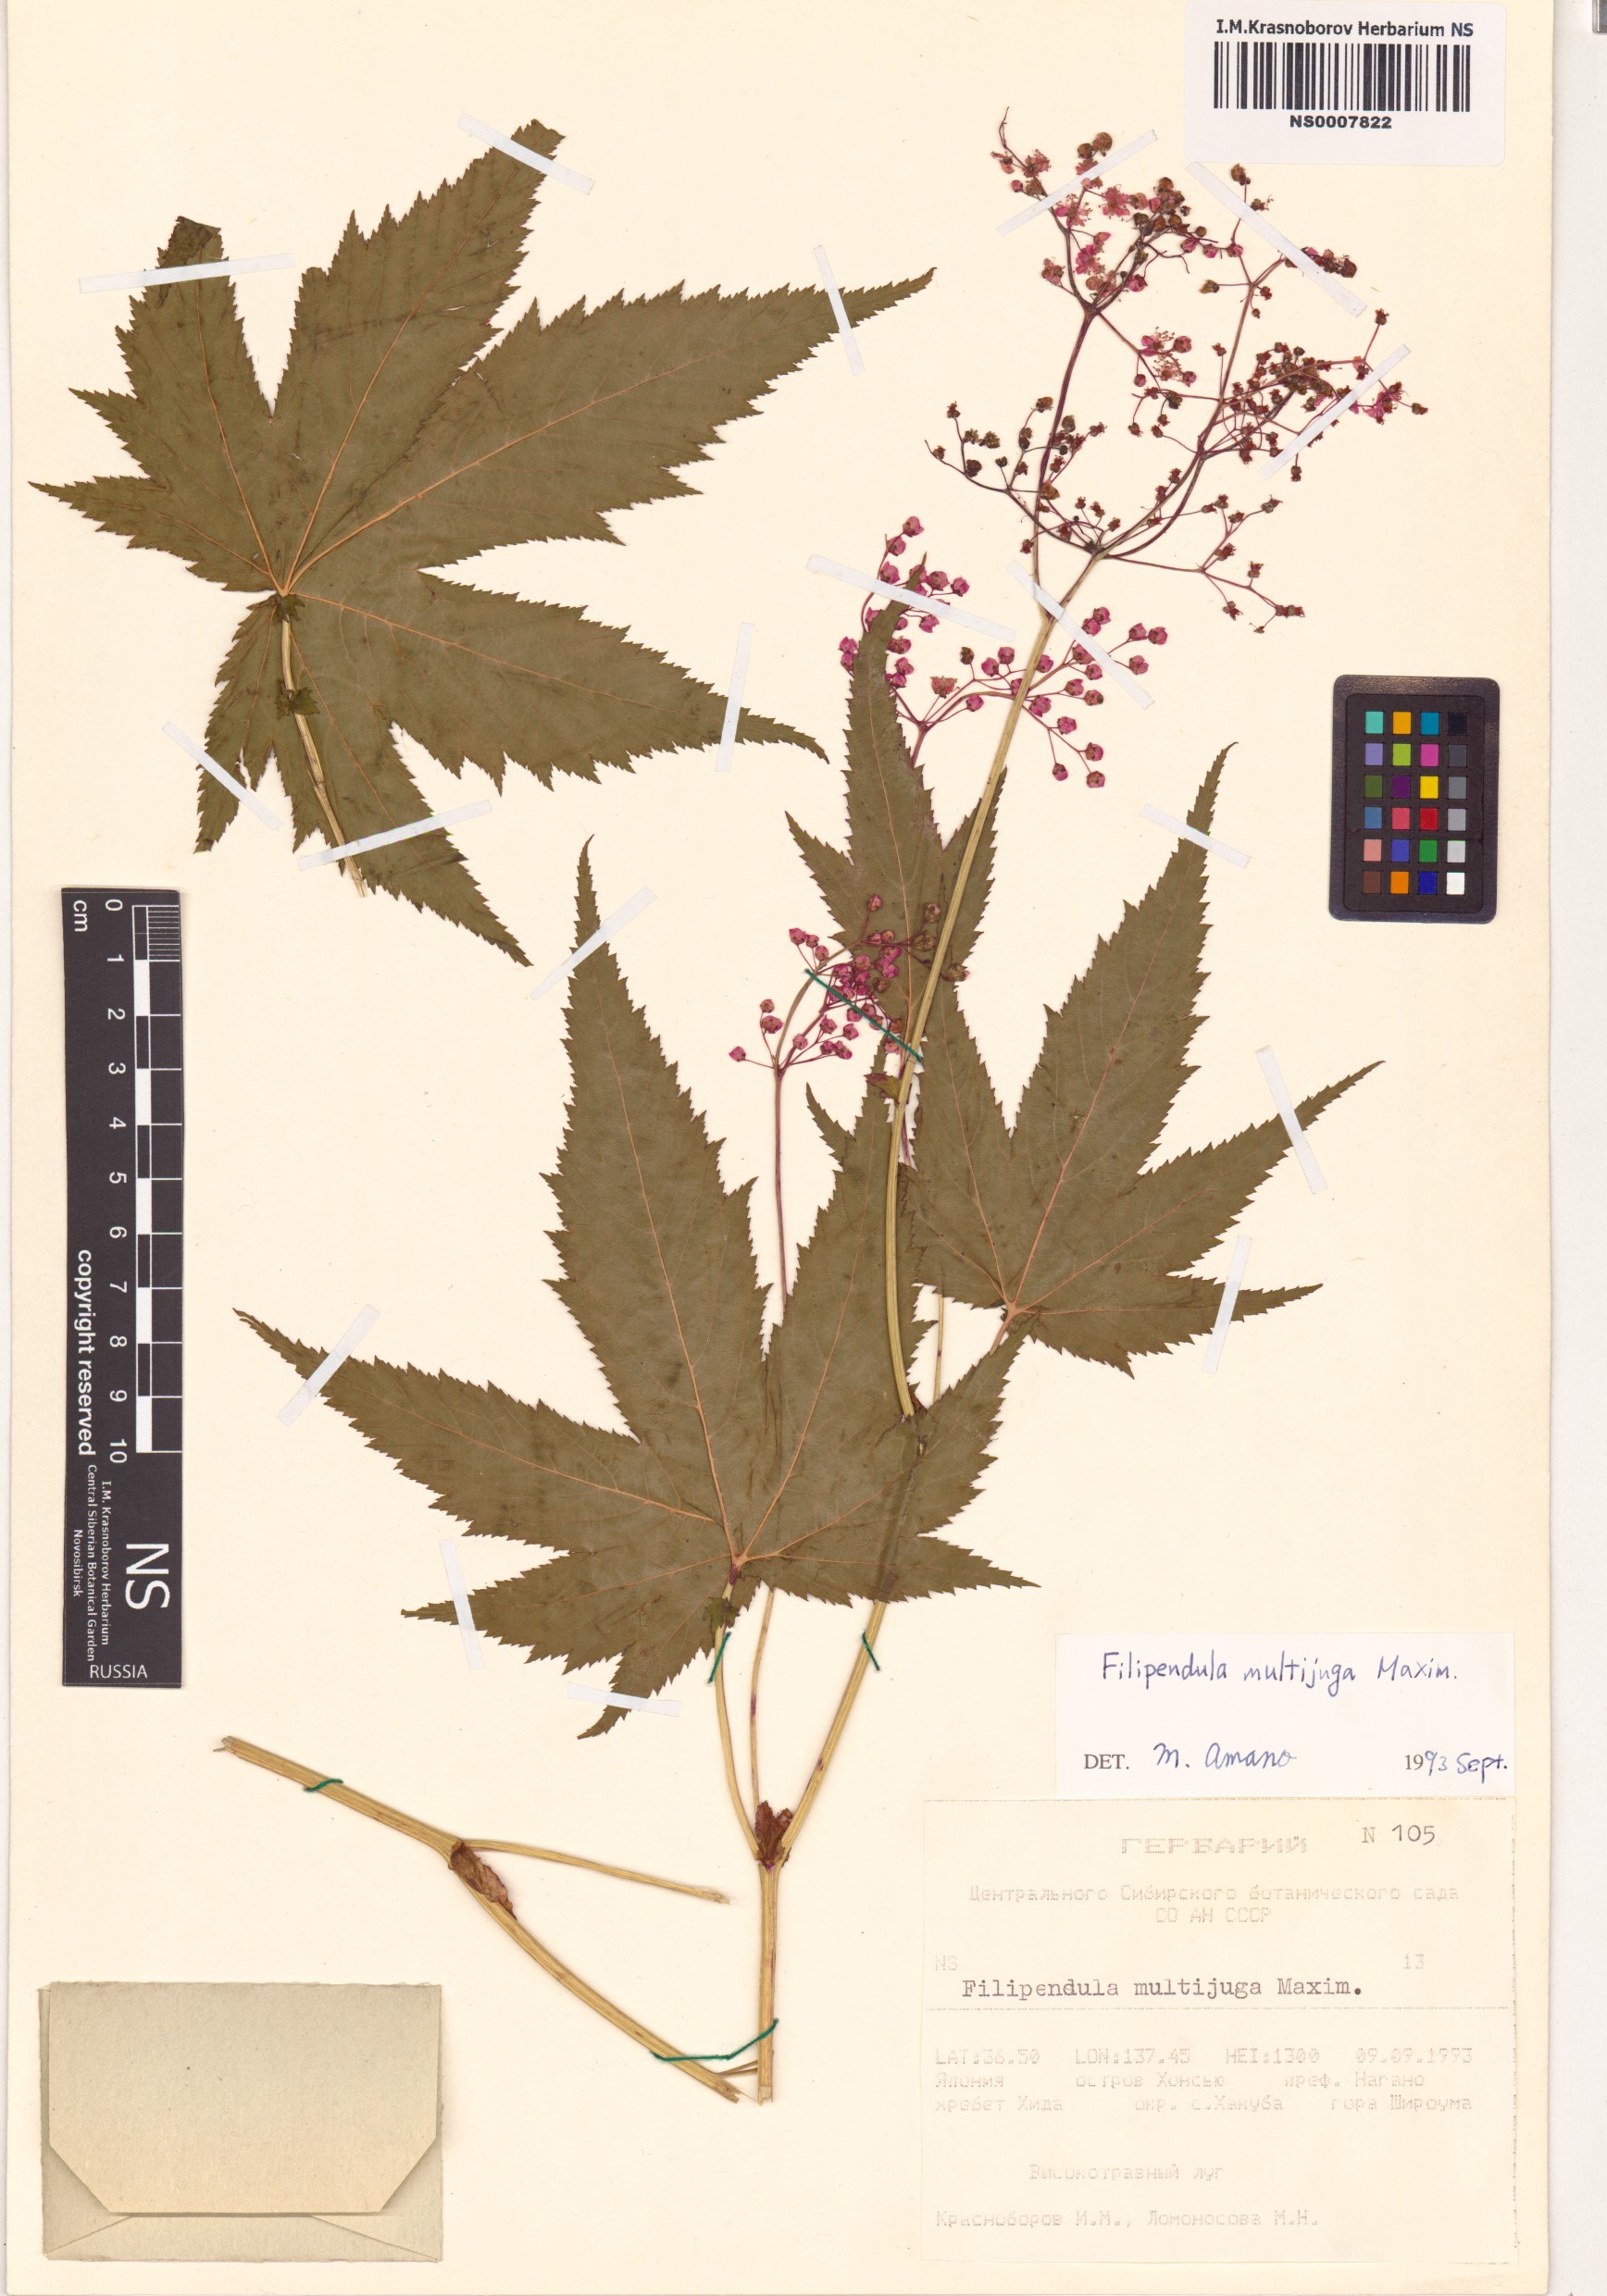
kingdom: Plantae
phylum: Tracheophyta
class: Magnoliopsida
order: Rosales
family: Rosaceae
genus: Filipendula
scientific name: Filipendula multijuga
